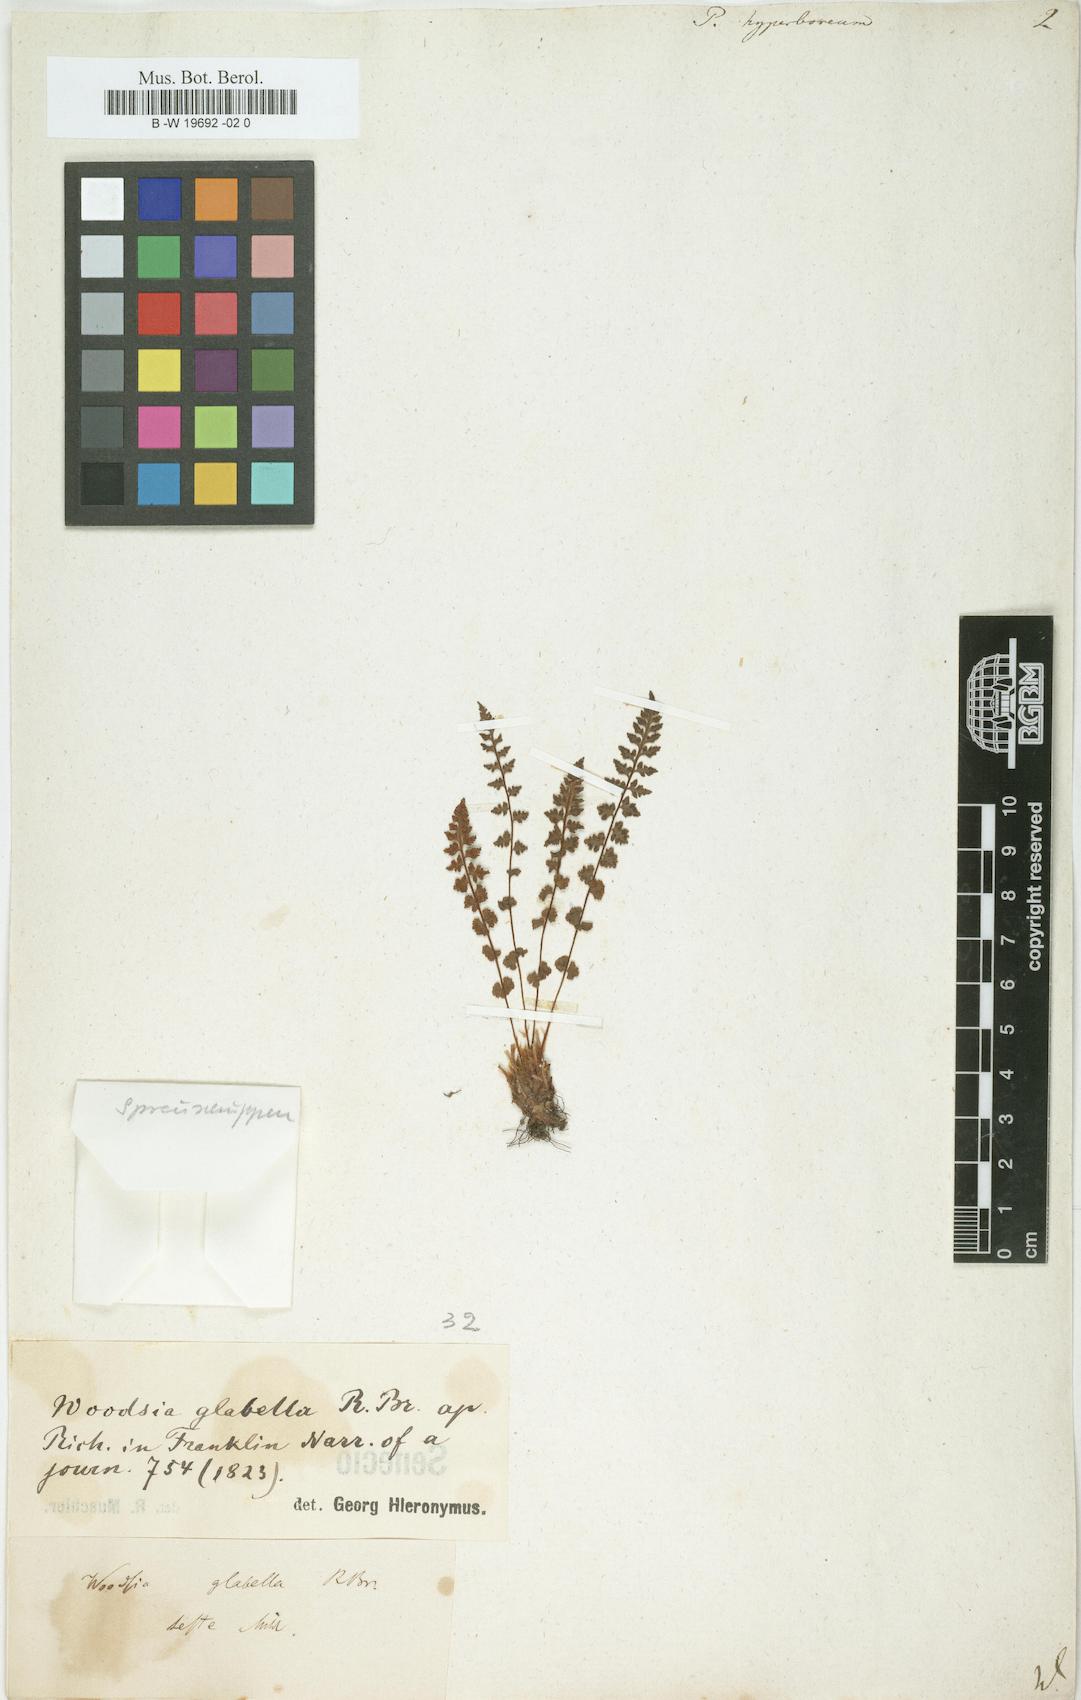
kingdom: Plantae
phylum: Tracheophyta
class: Polypodiopsida
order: Polypodiales
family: Woodsiaceae
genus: Woodsia
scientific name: Woodsia alpina
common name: Alpine woodsia
